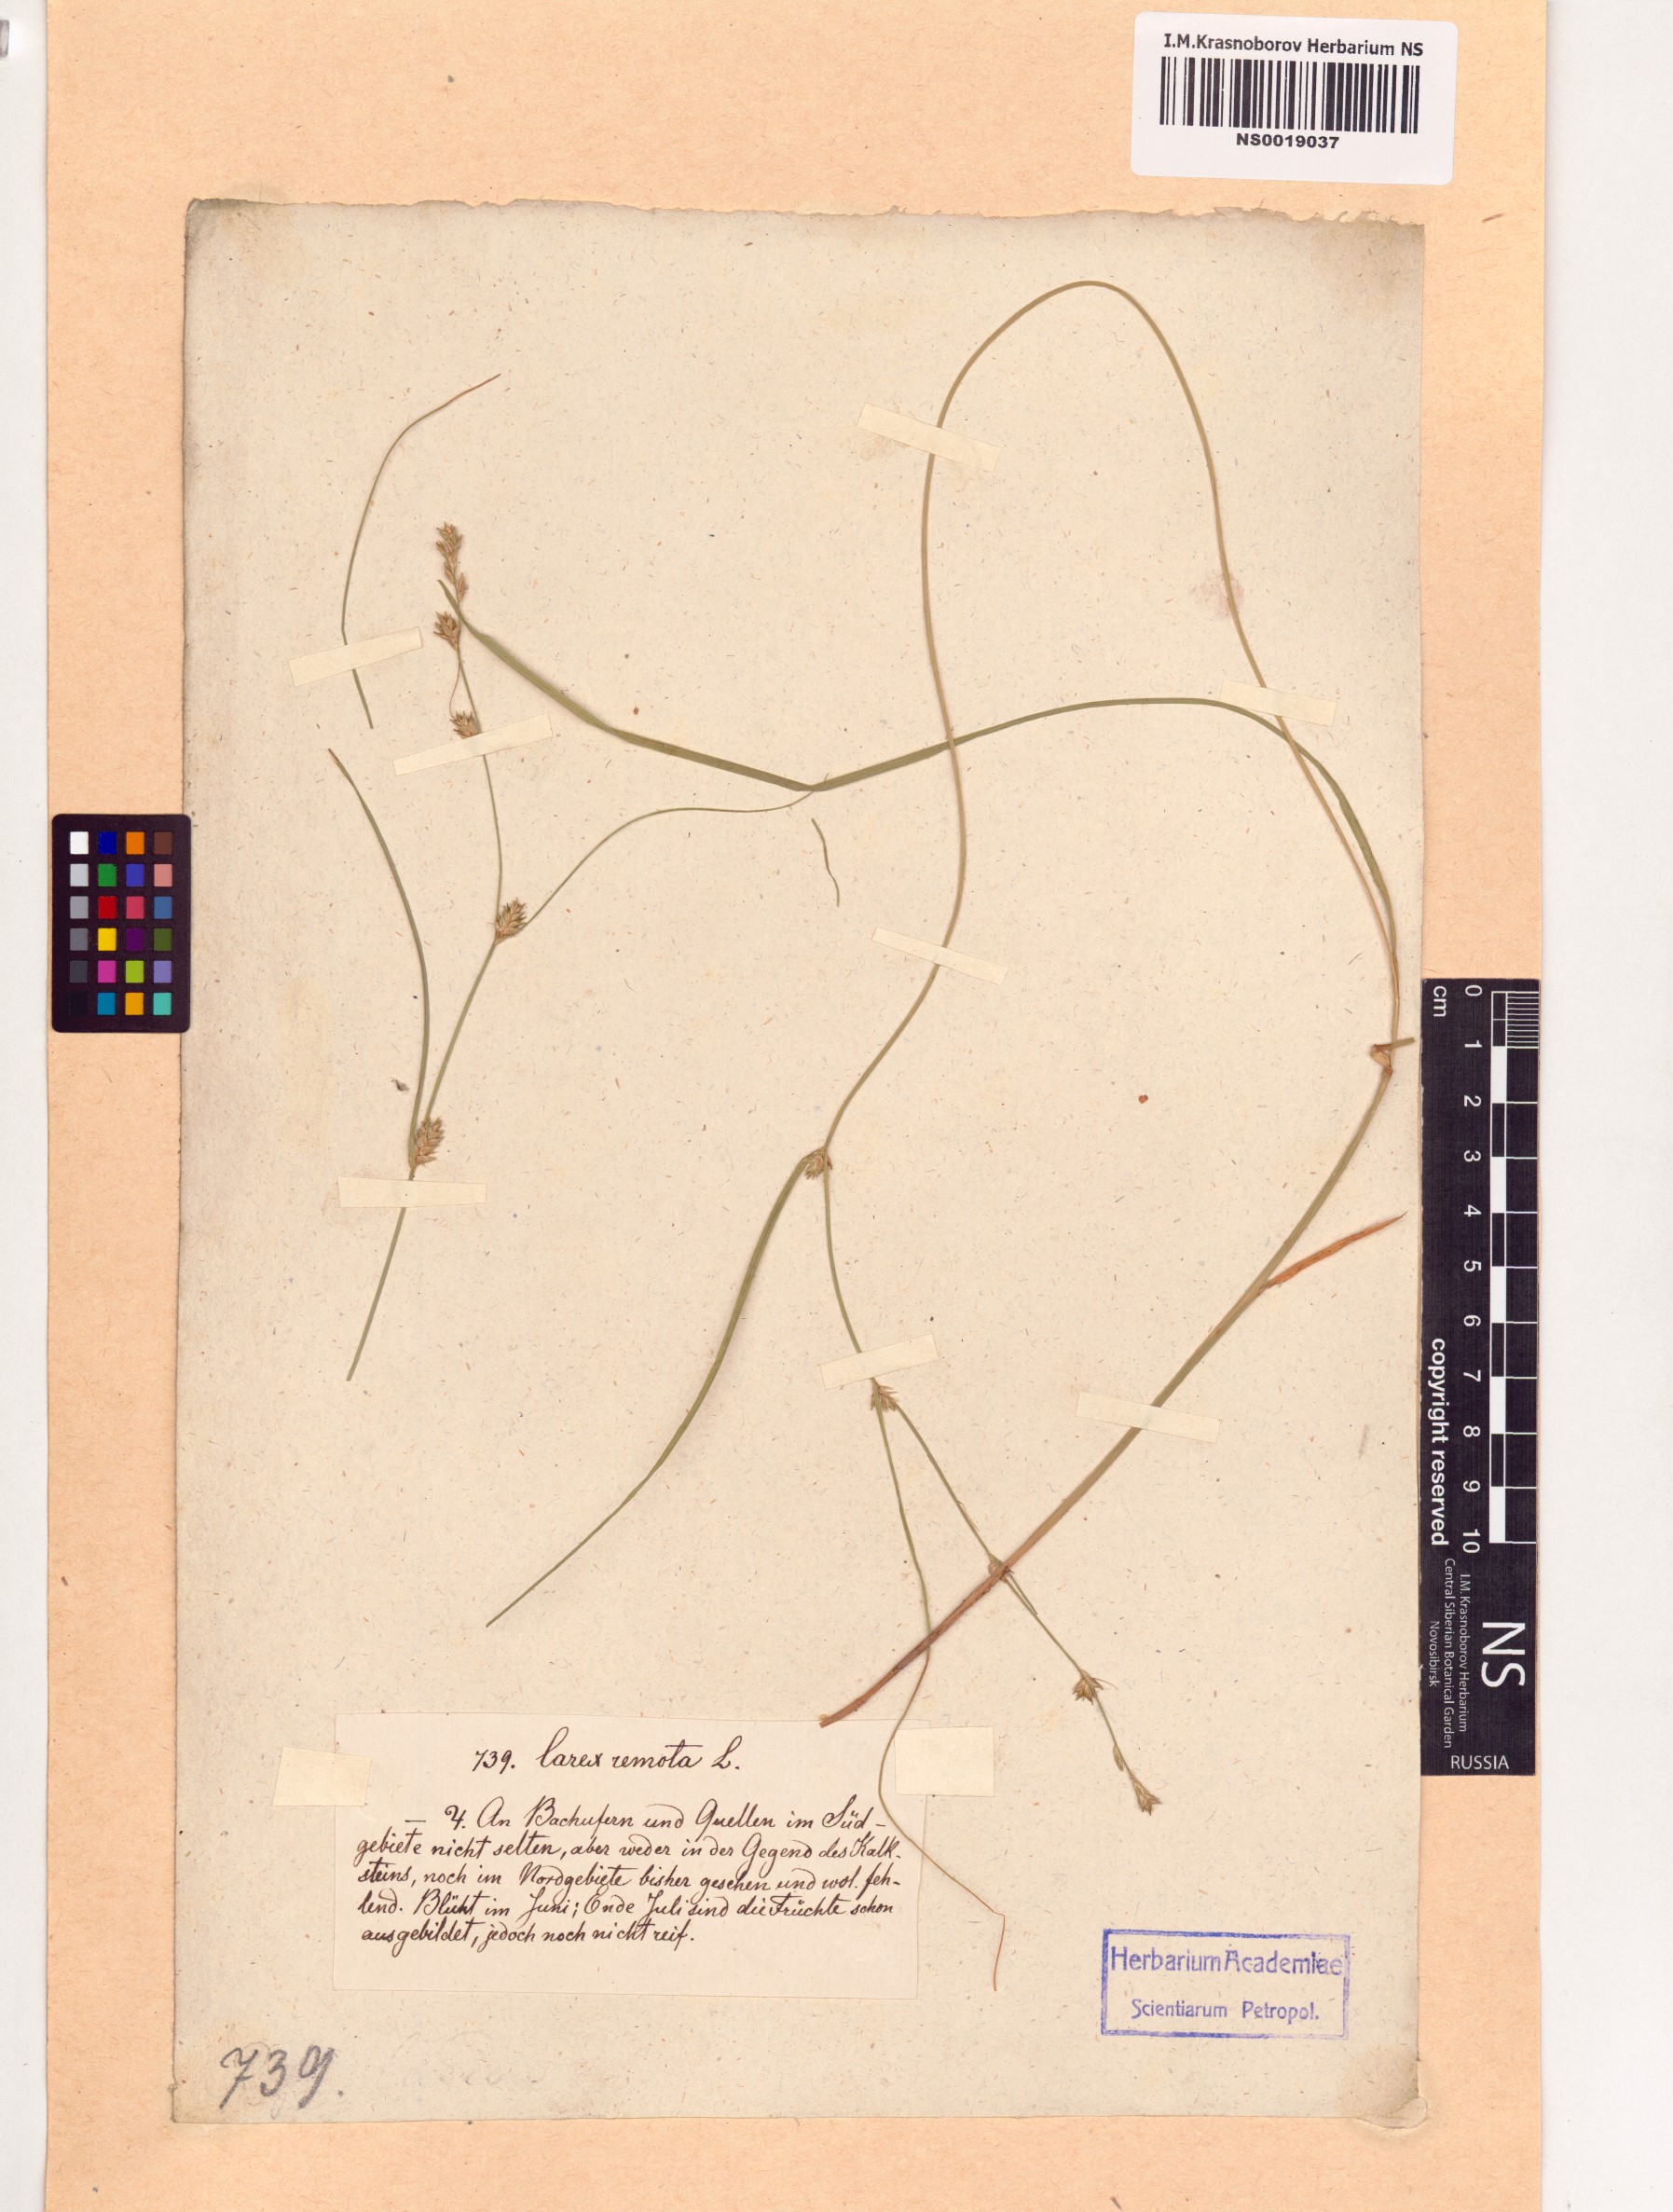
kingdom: Plantae
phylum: Tracheophyta
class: Liliopsida
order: Poales
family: Cyperaceae
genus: Carex
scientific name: Carex remota
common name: Remote sedge
